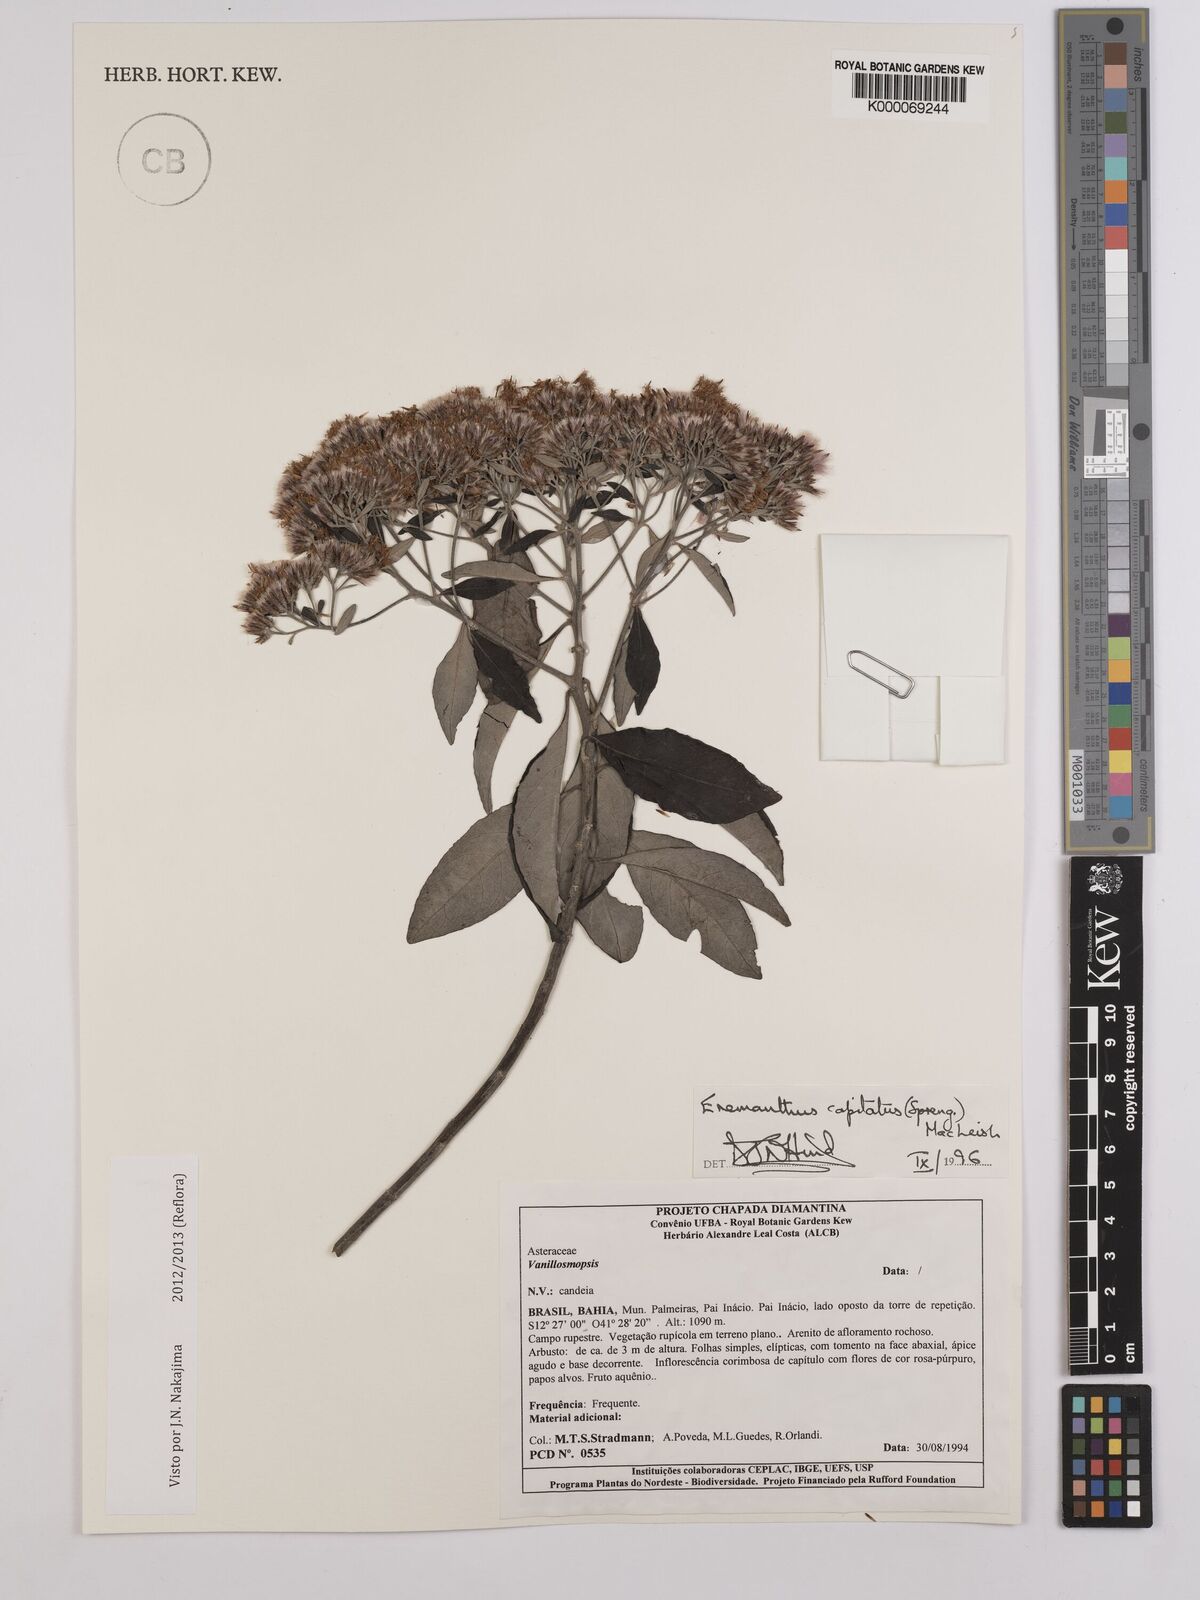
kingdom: Plantae
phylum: Tracheophyta
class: Magnoliopsida
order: Asterales
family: Asteraceae
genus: Eremanthus
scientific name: Eremanthus capitatus
